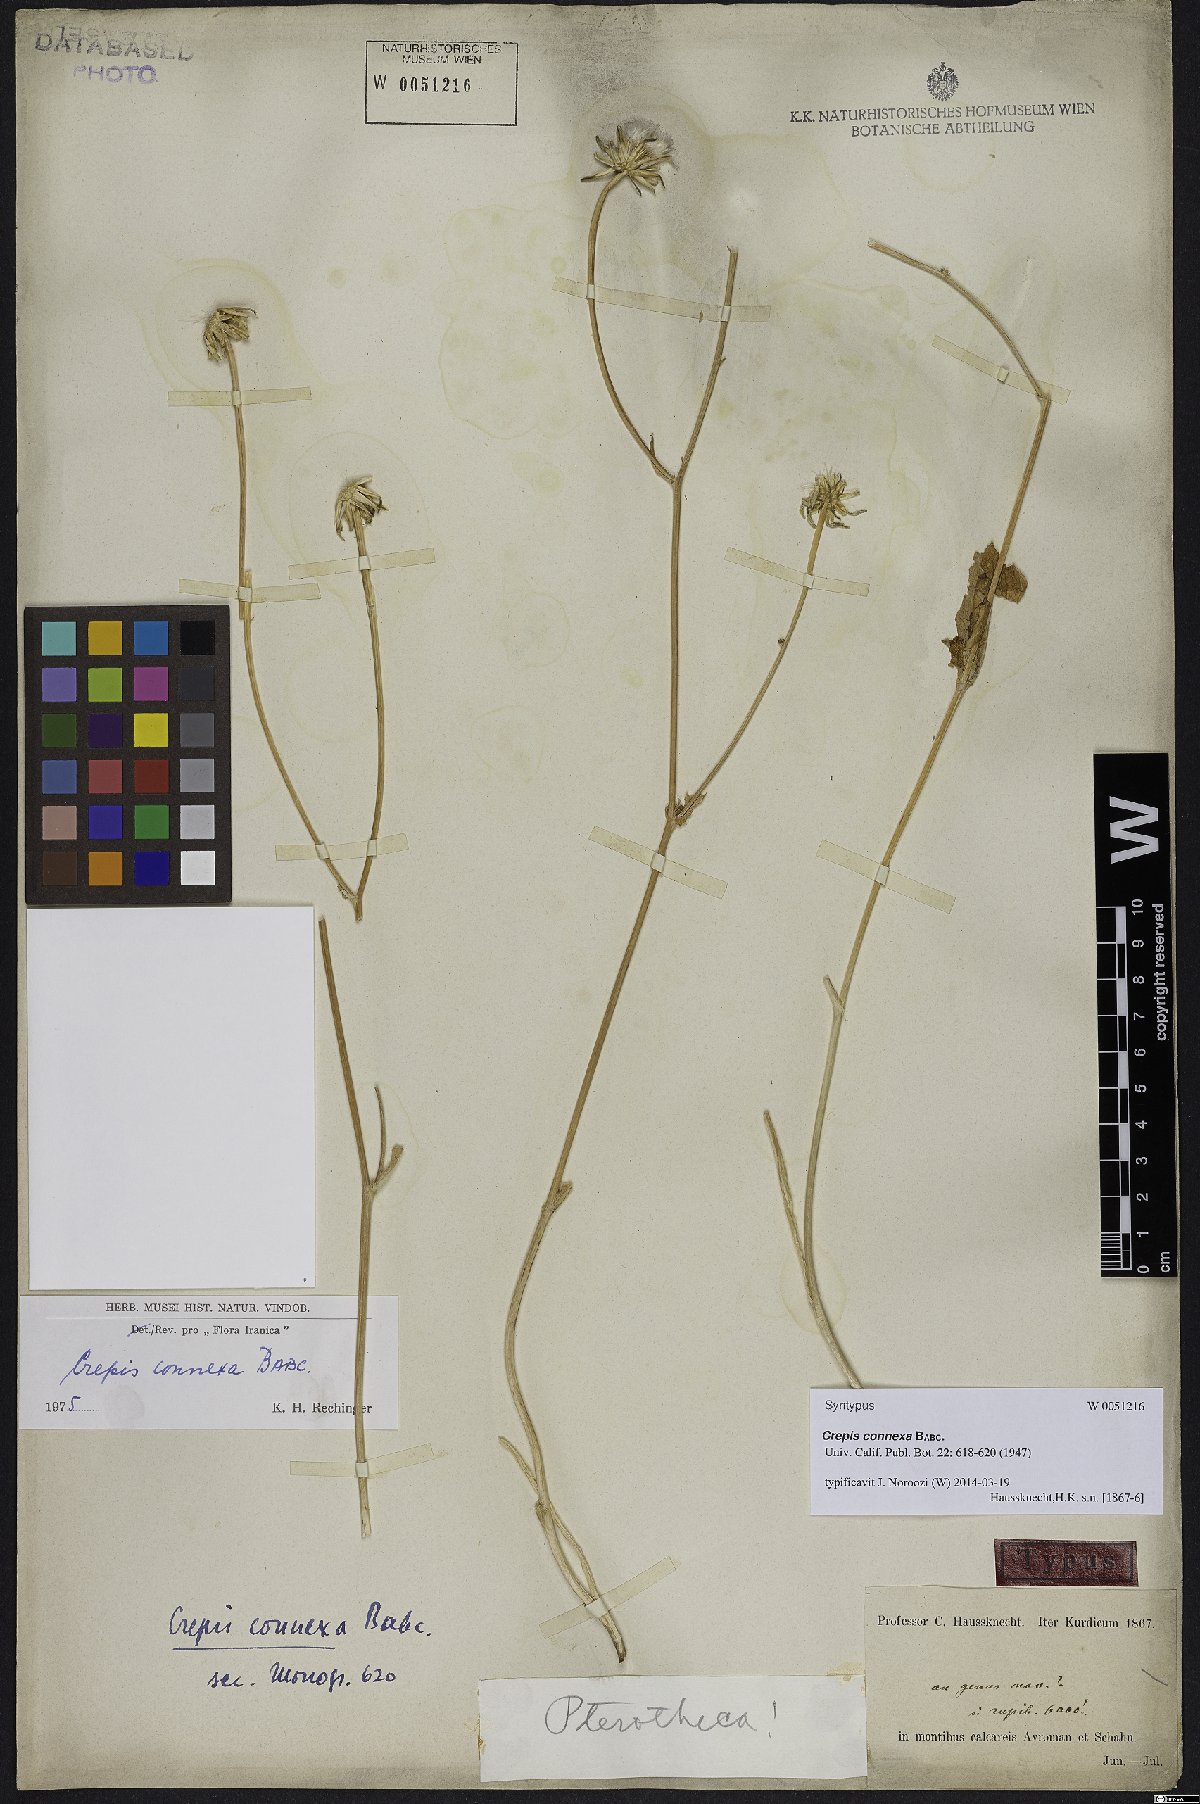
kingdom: Plantae
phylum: Tracheophyta
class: Magnoliopsida
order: Asterales
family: Asteraceae
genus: Crepis
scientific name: Crepis connexa
